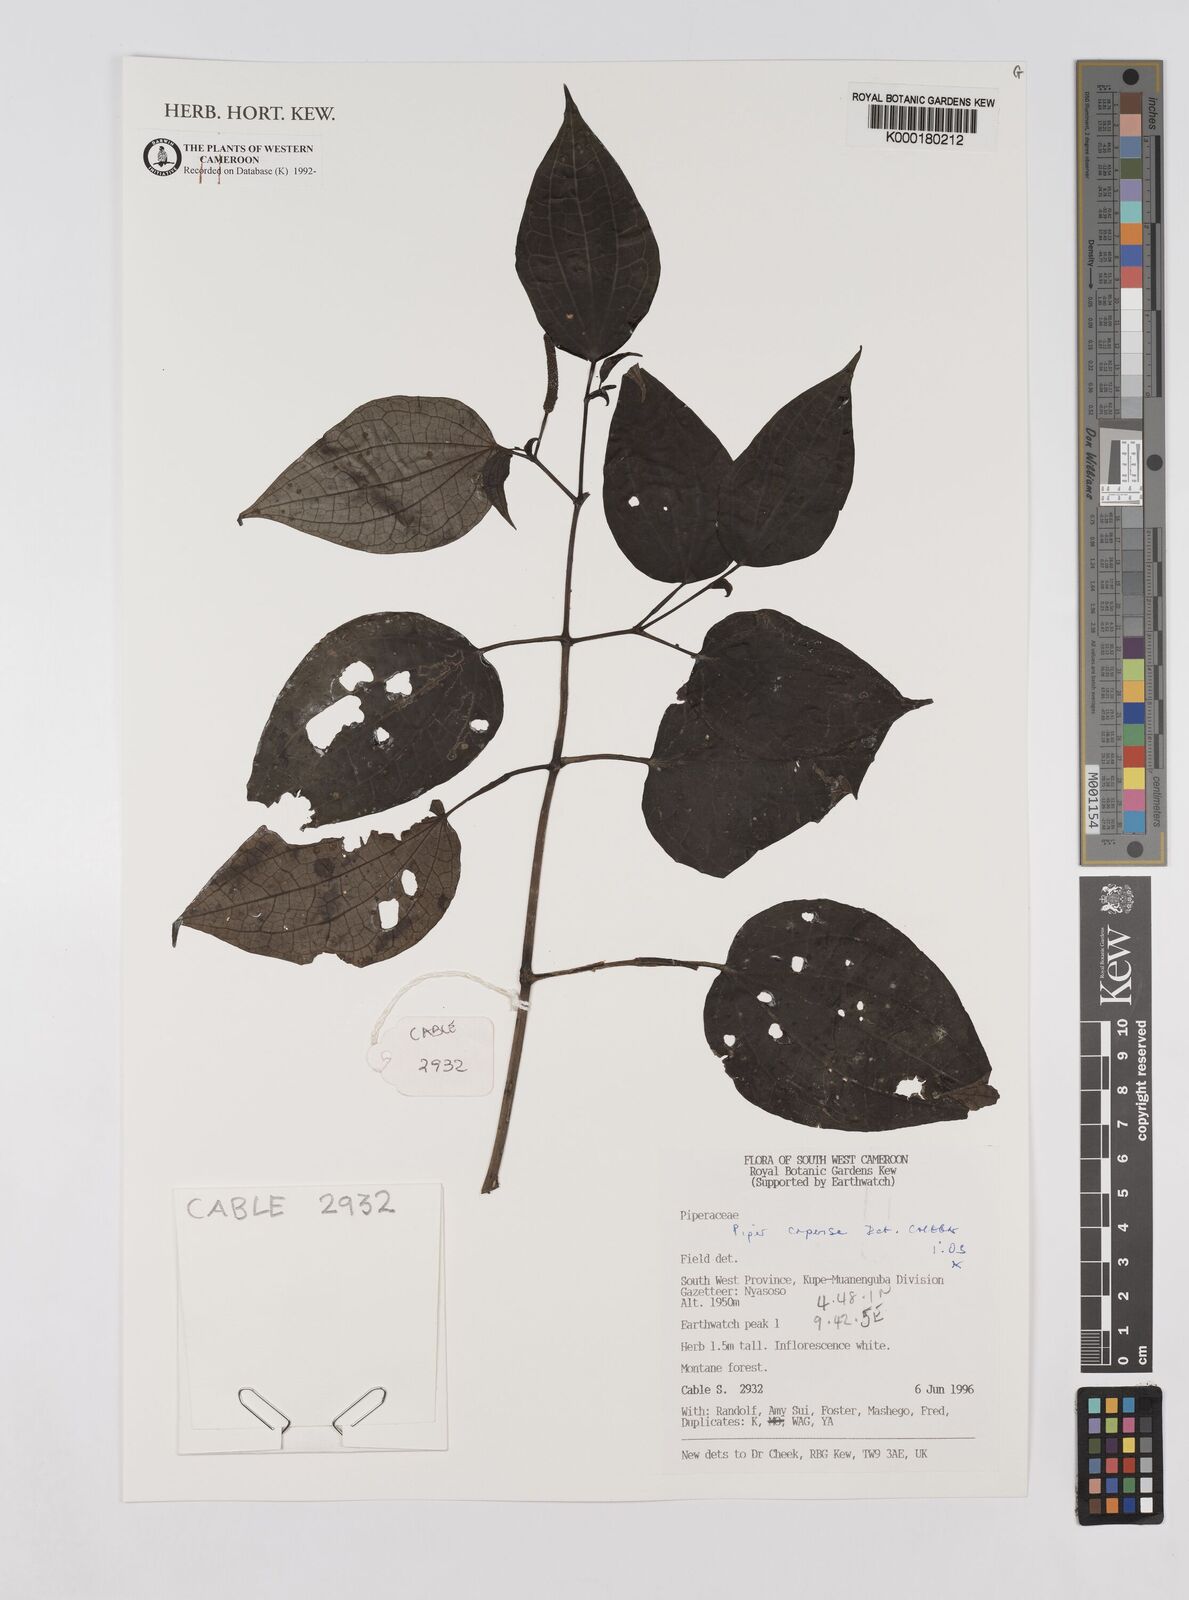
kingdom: Plantae
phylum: Tracheophyta
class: Magnoliopsida
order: Piperales
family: Piperaceae
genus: Piper
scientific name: Piper capense
